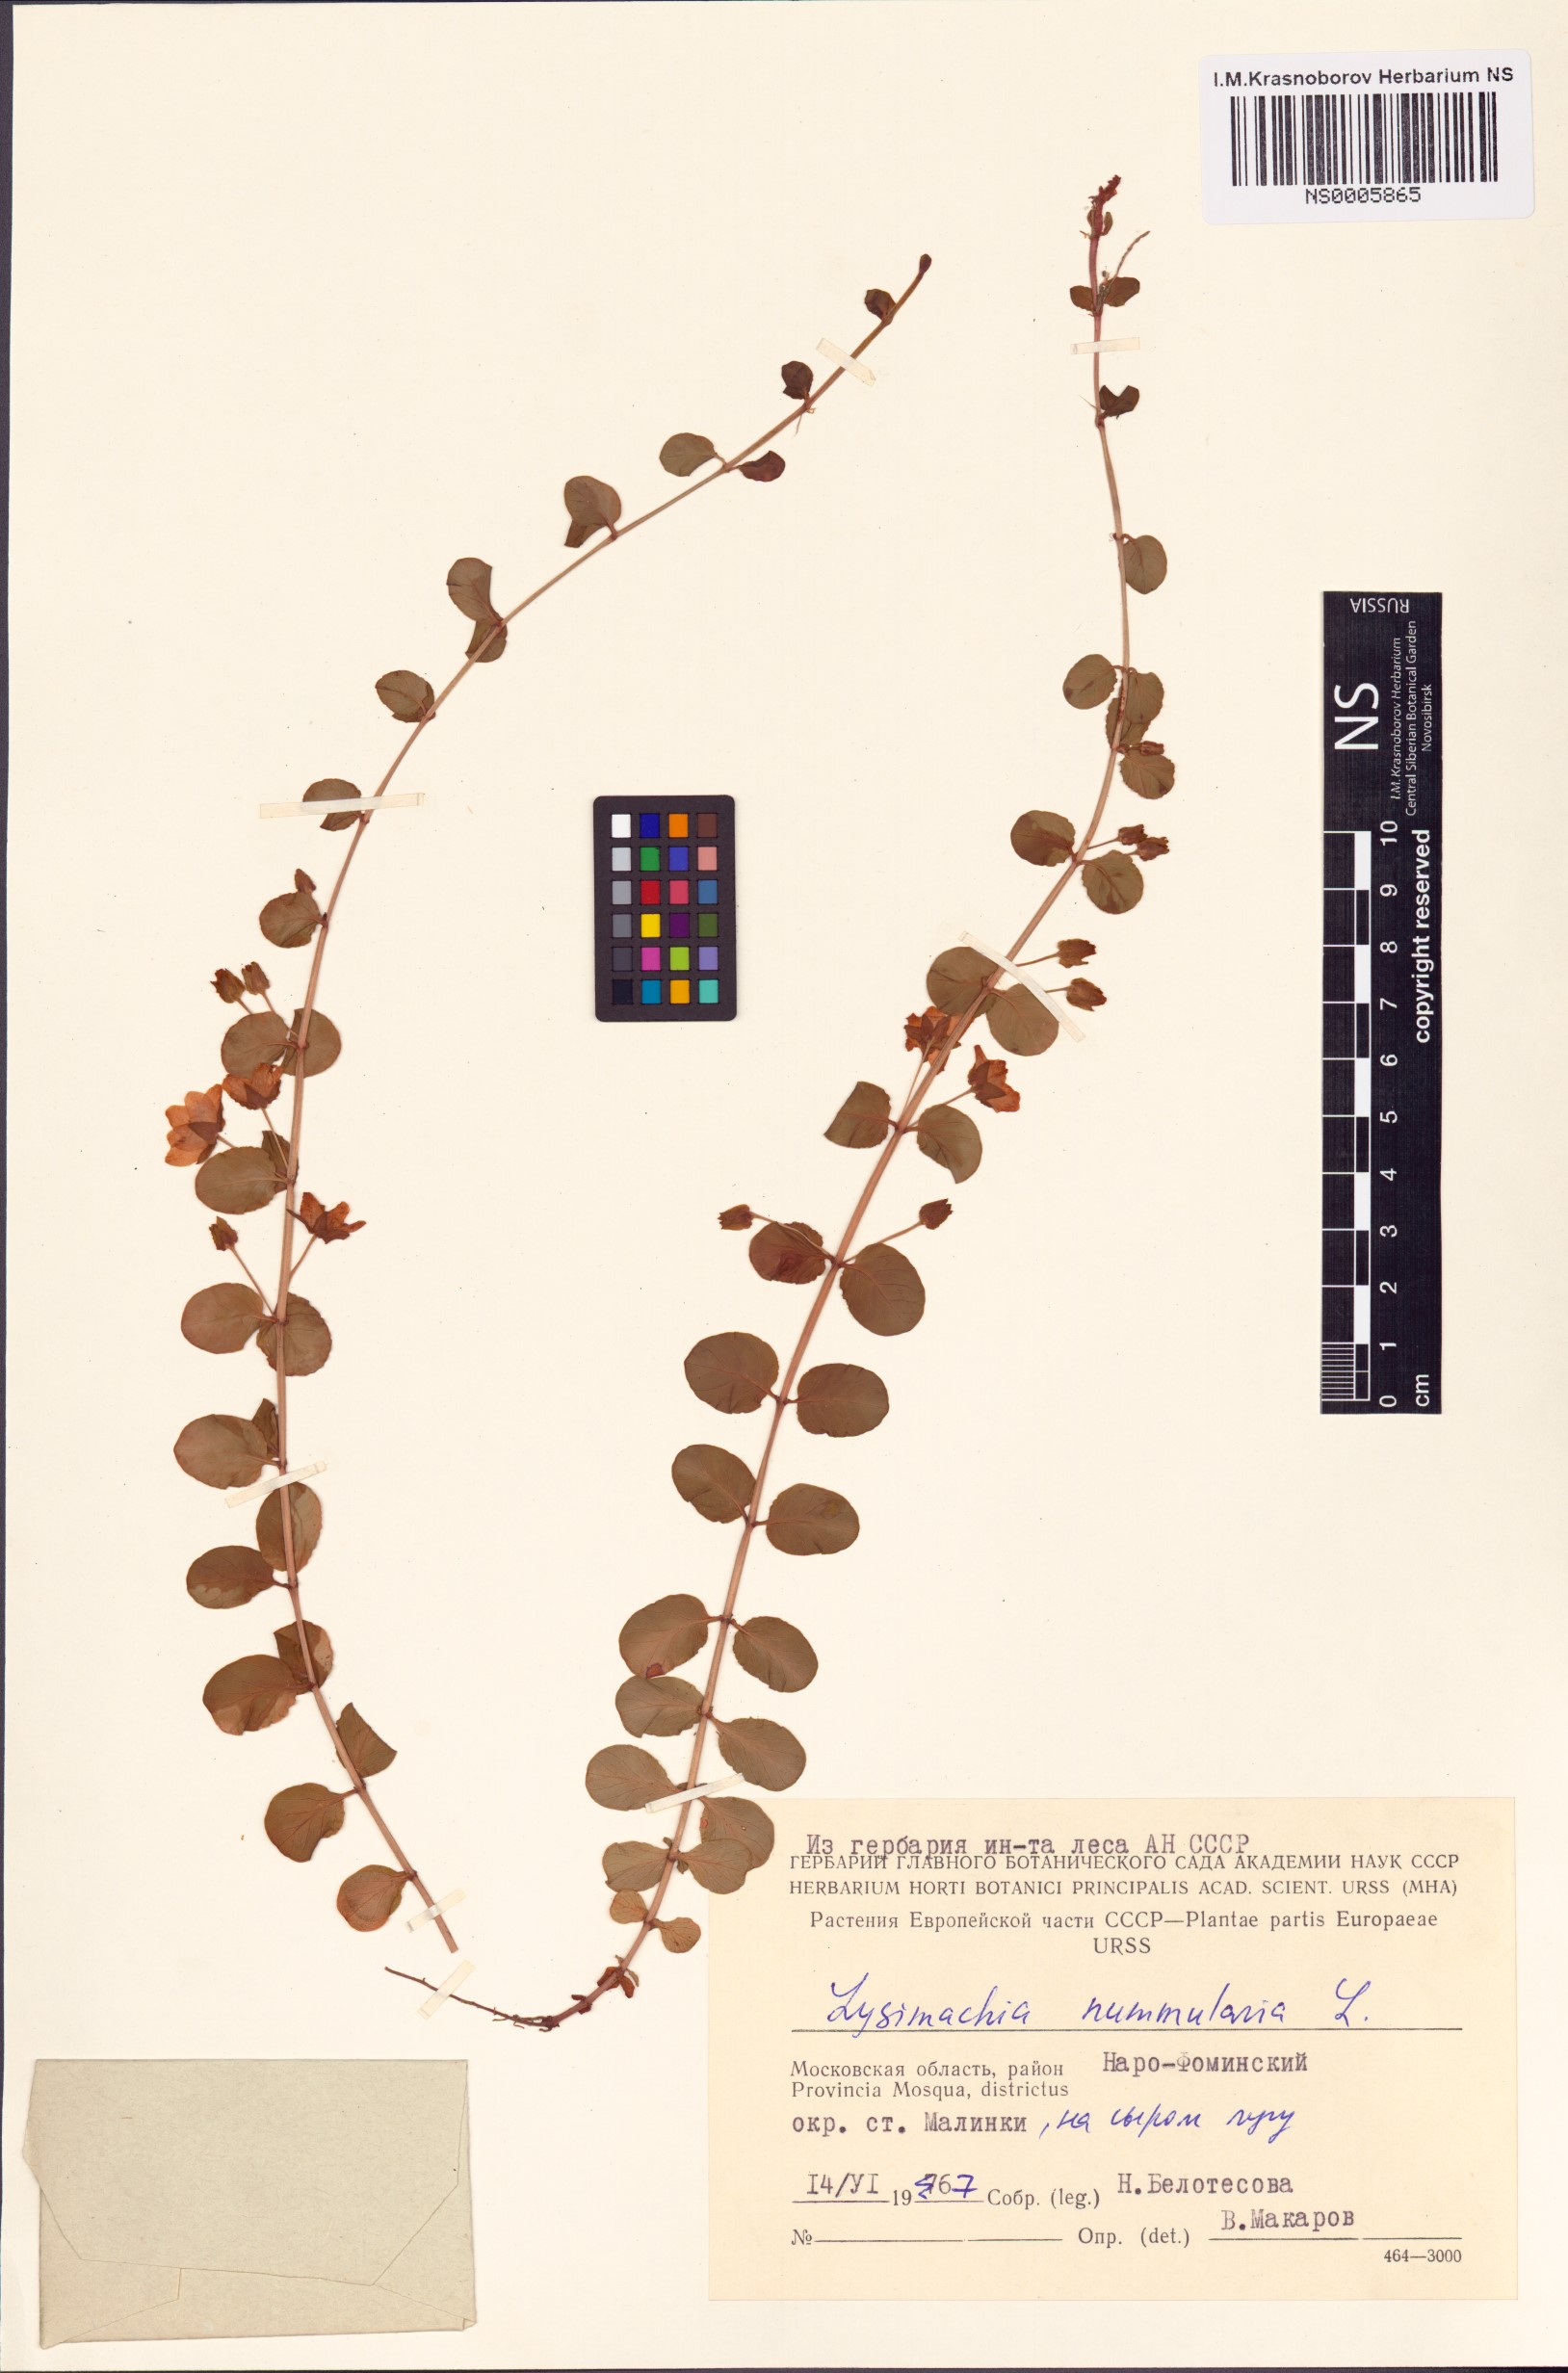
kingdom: Plantae
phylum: Tracheophyta
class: Magnoliopsida
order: Ericales
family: Primulaceae
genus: Lysimachia
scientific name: Lysimachia nummularia
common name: Moneywort
